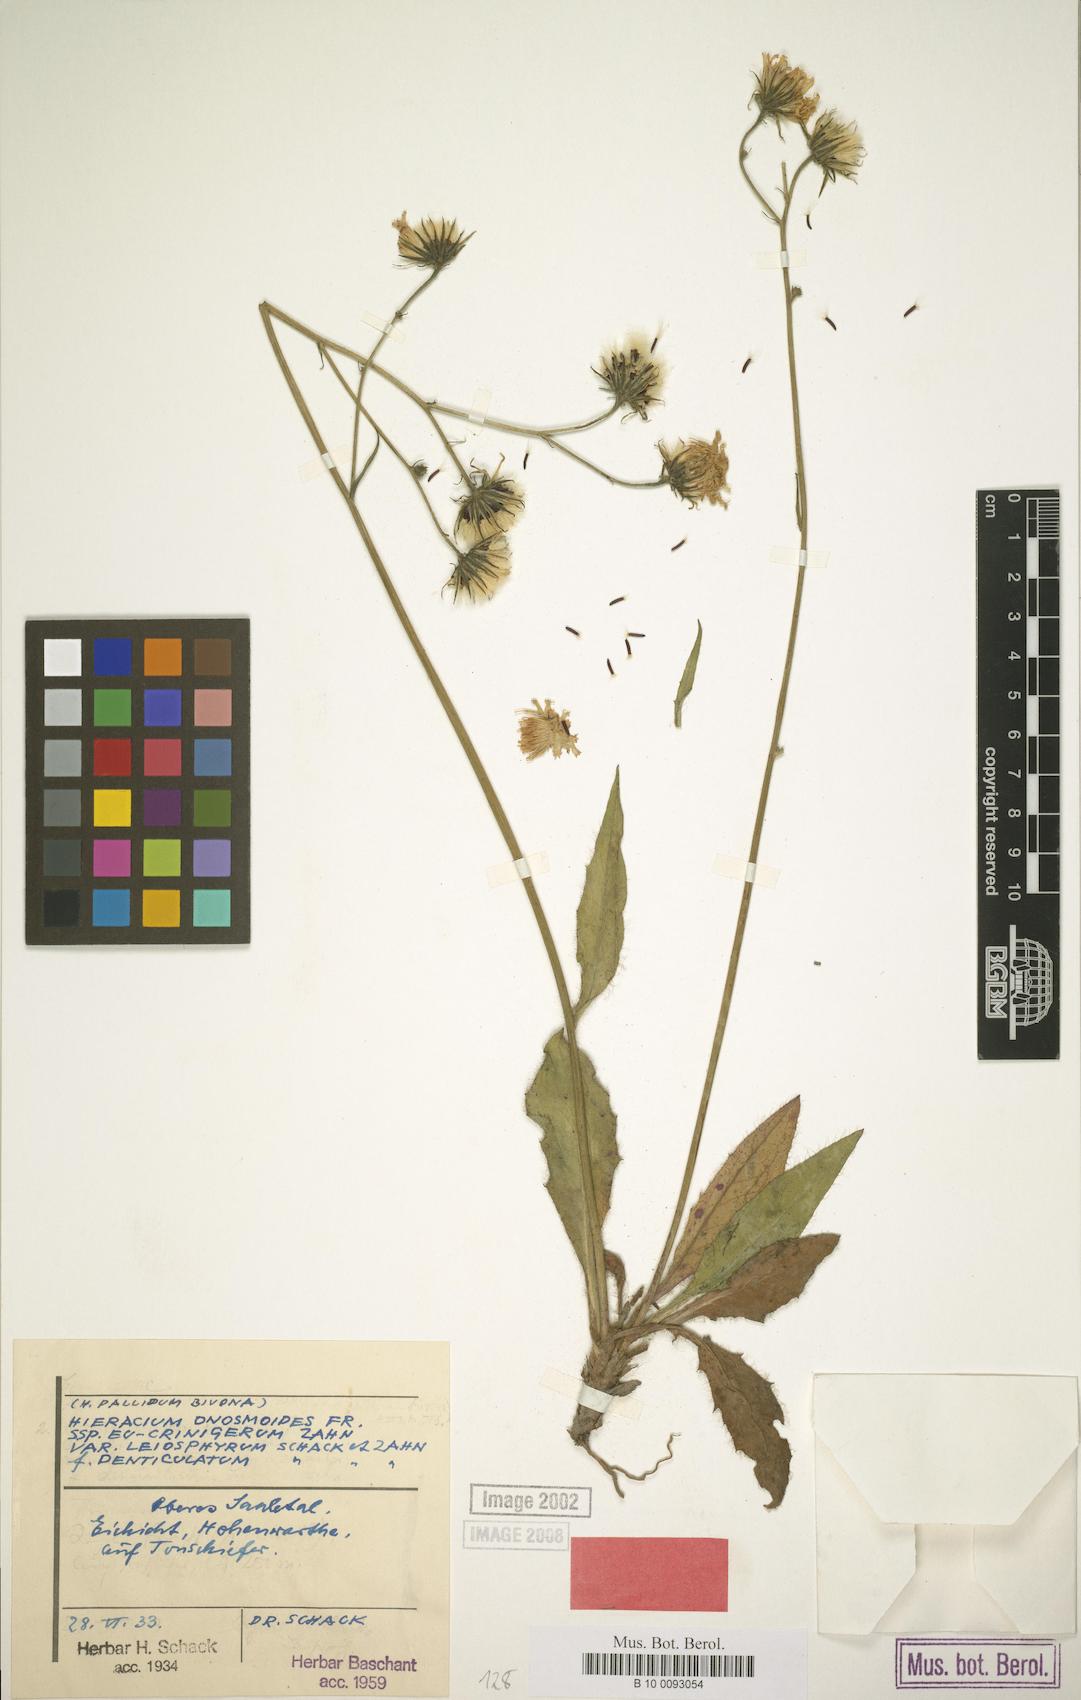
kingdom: Plantae
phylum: Tracheophyta
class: Magnoliopsida
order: Asterales
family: Asteraceae
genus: Hieracium
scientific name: Hieracium onosmoides
